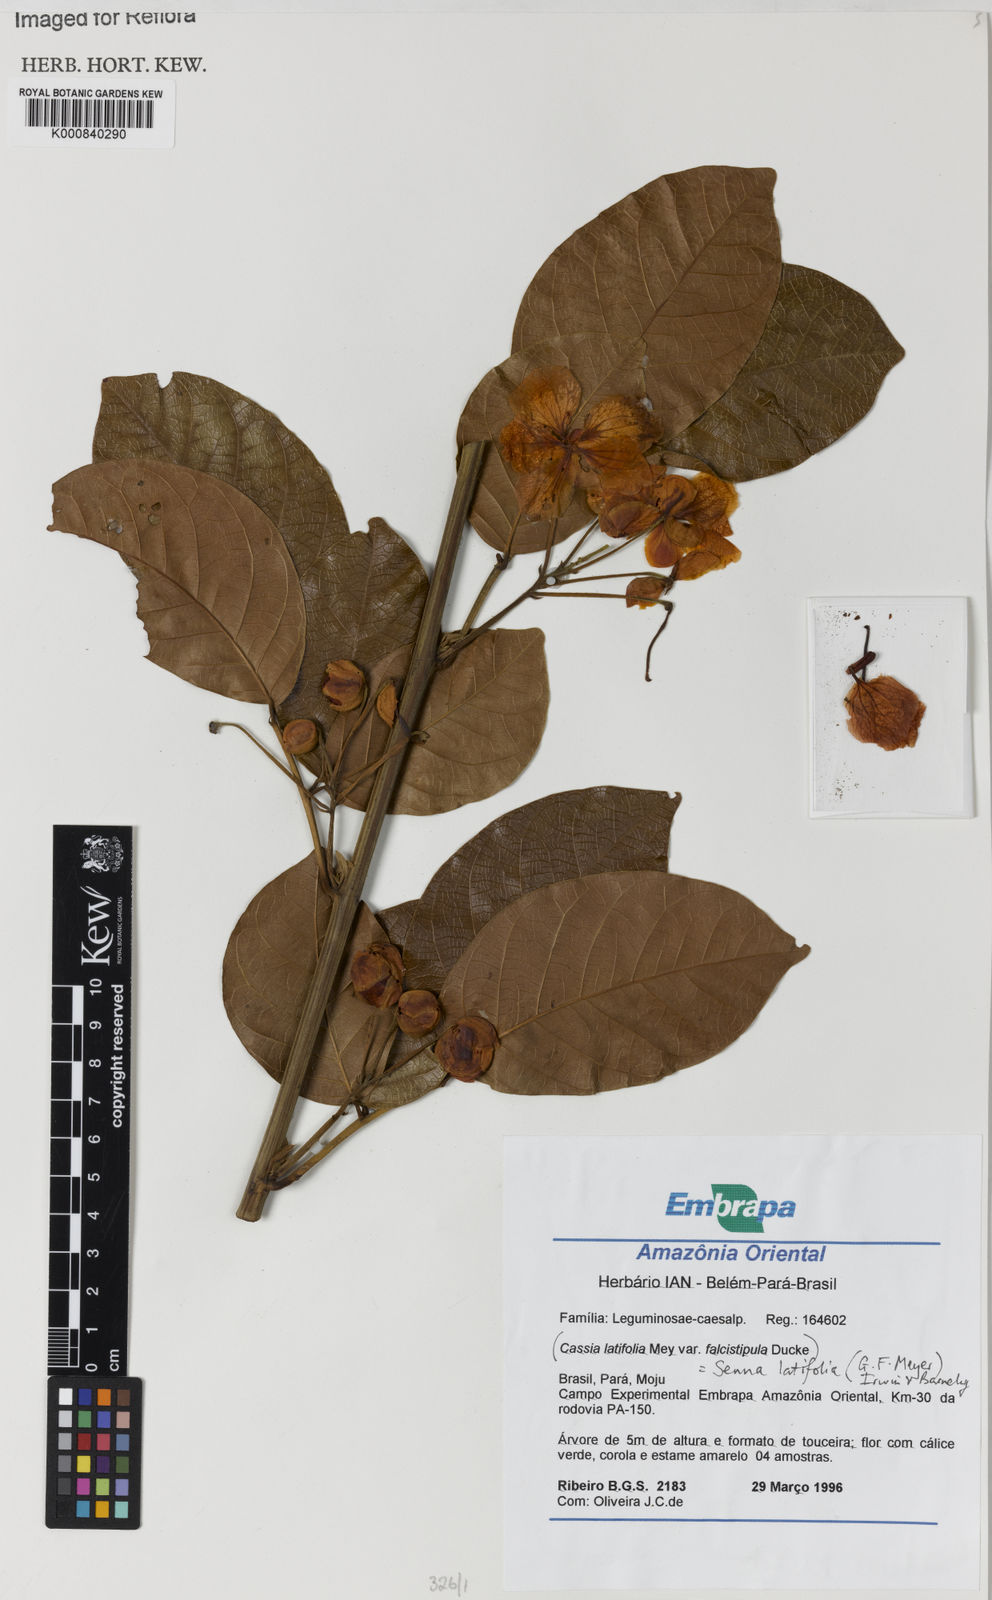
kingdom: Plantae
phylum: Tracheophyta
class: Magnoliopsida
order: Fabales
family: Fabaceae
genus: Senna
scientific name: Senna latifolia
